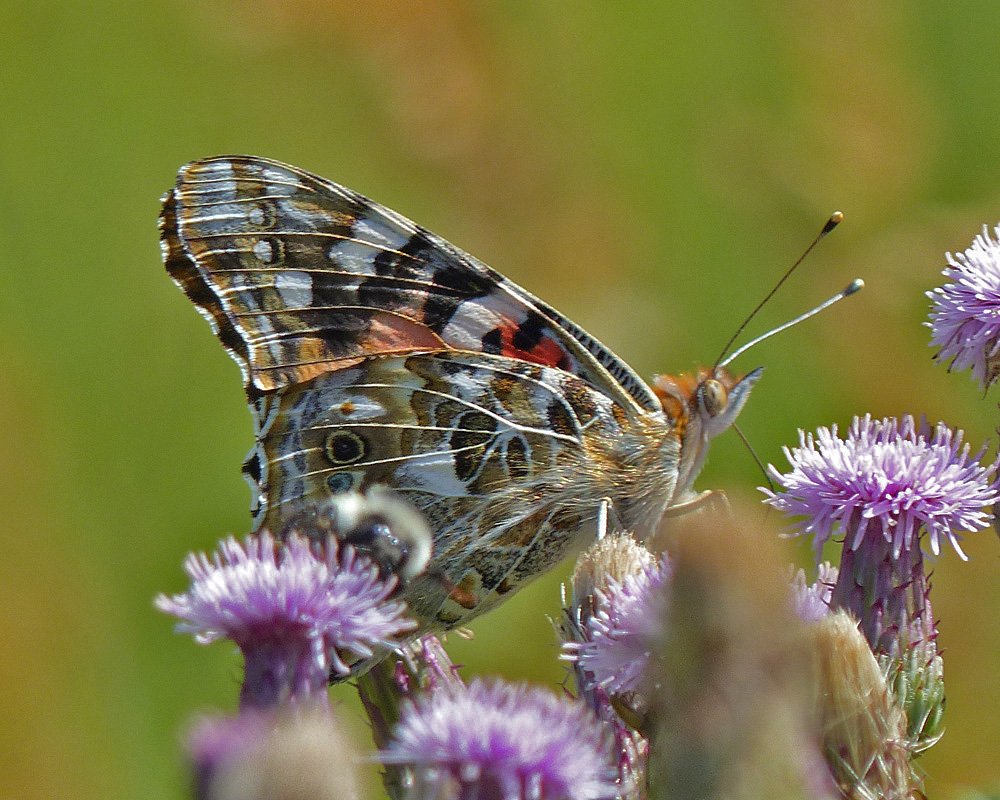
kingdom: Animalia
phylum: Arthropoda
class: Insecta
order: Lepidoptera
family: Nymphalidae
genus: Vanessa
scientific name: Vanessa cardui
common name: Painted Lady
